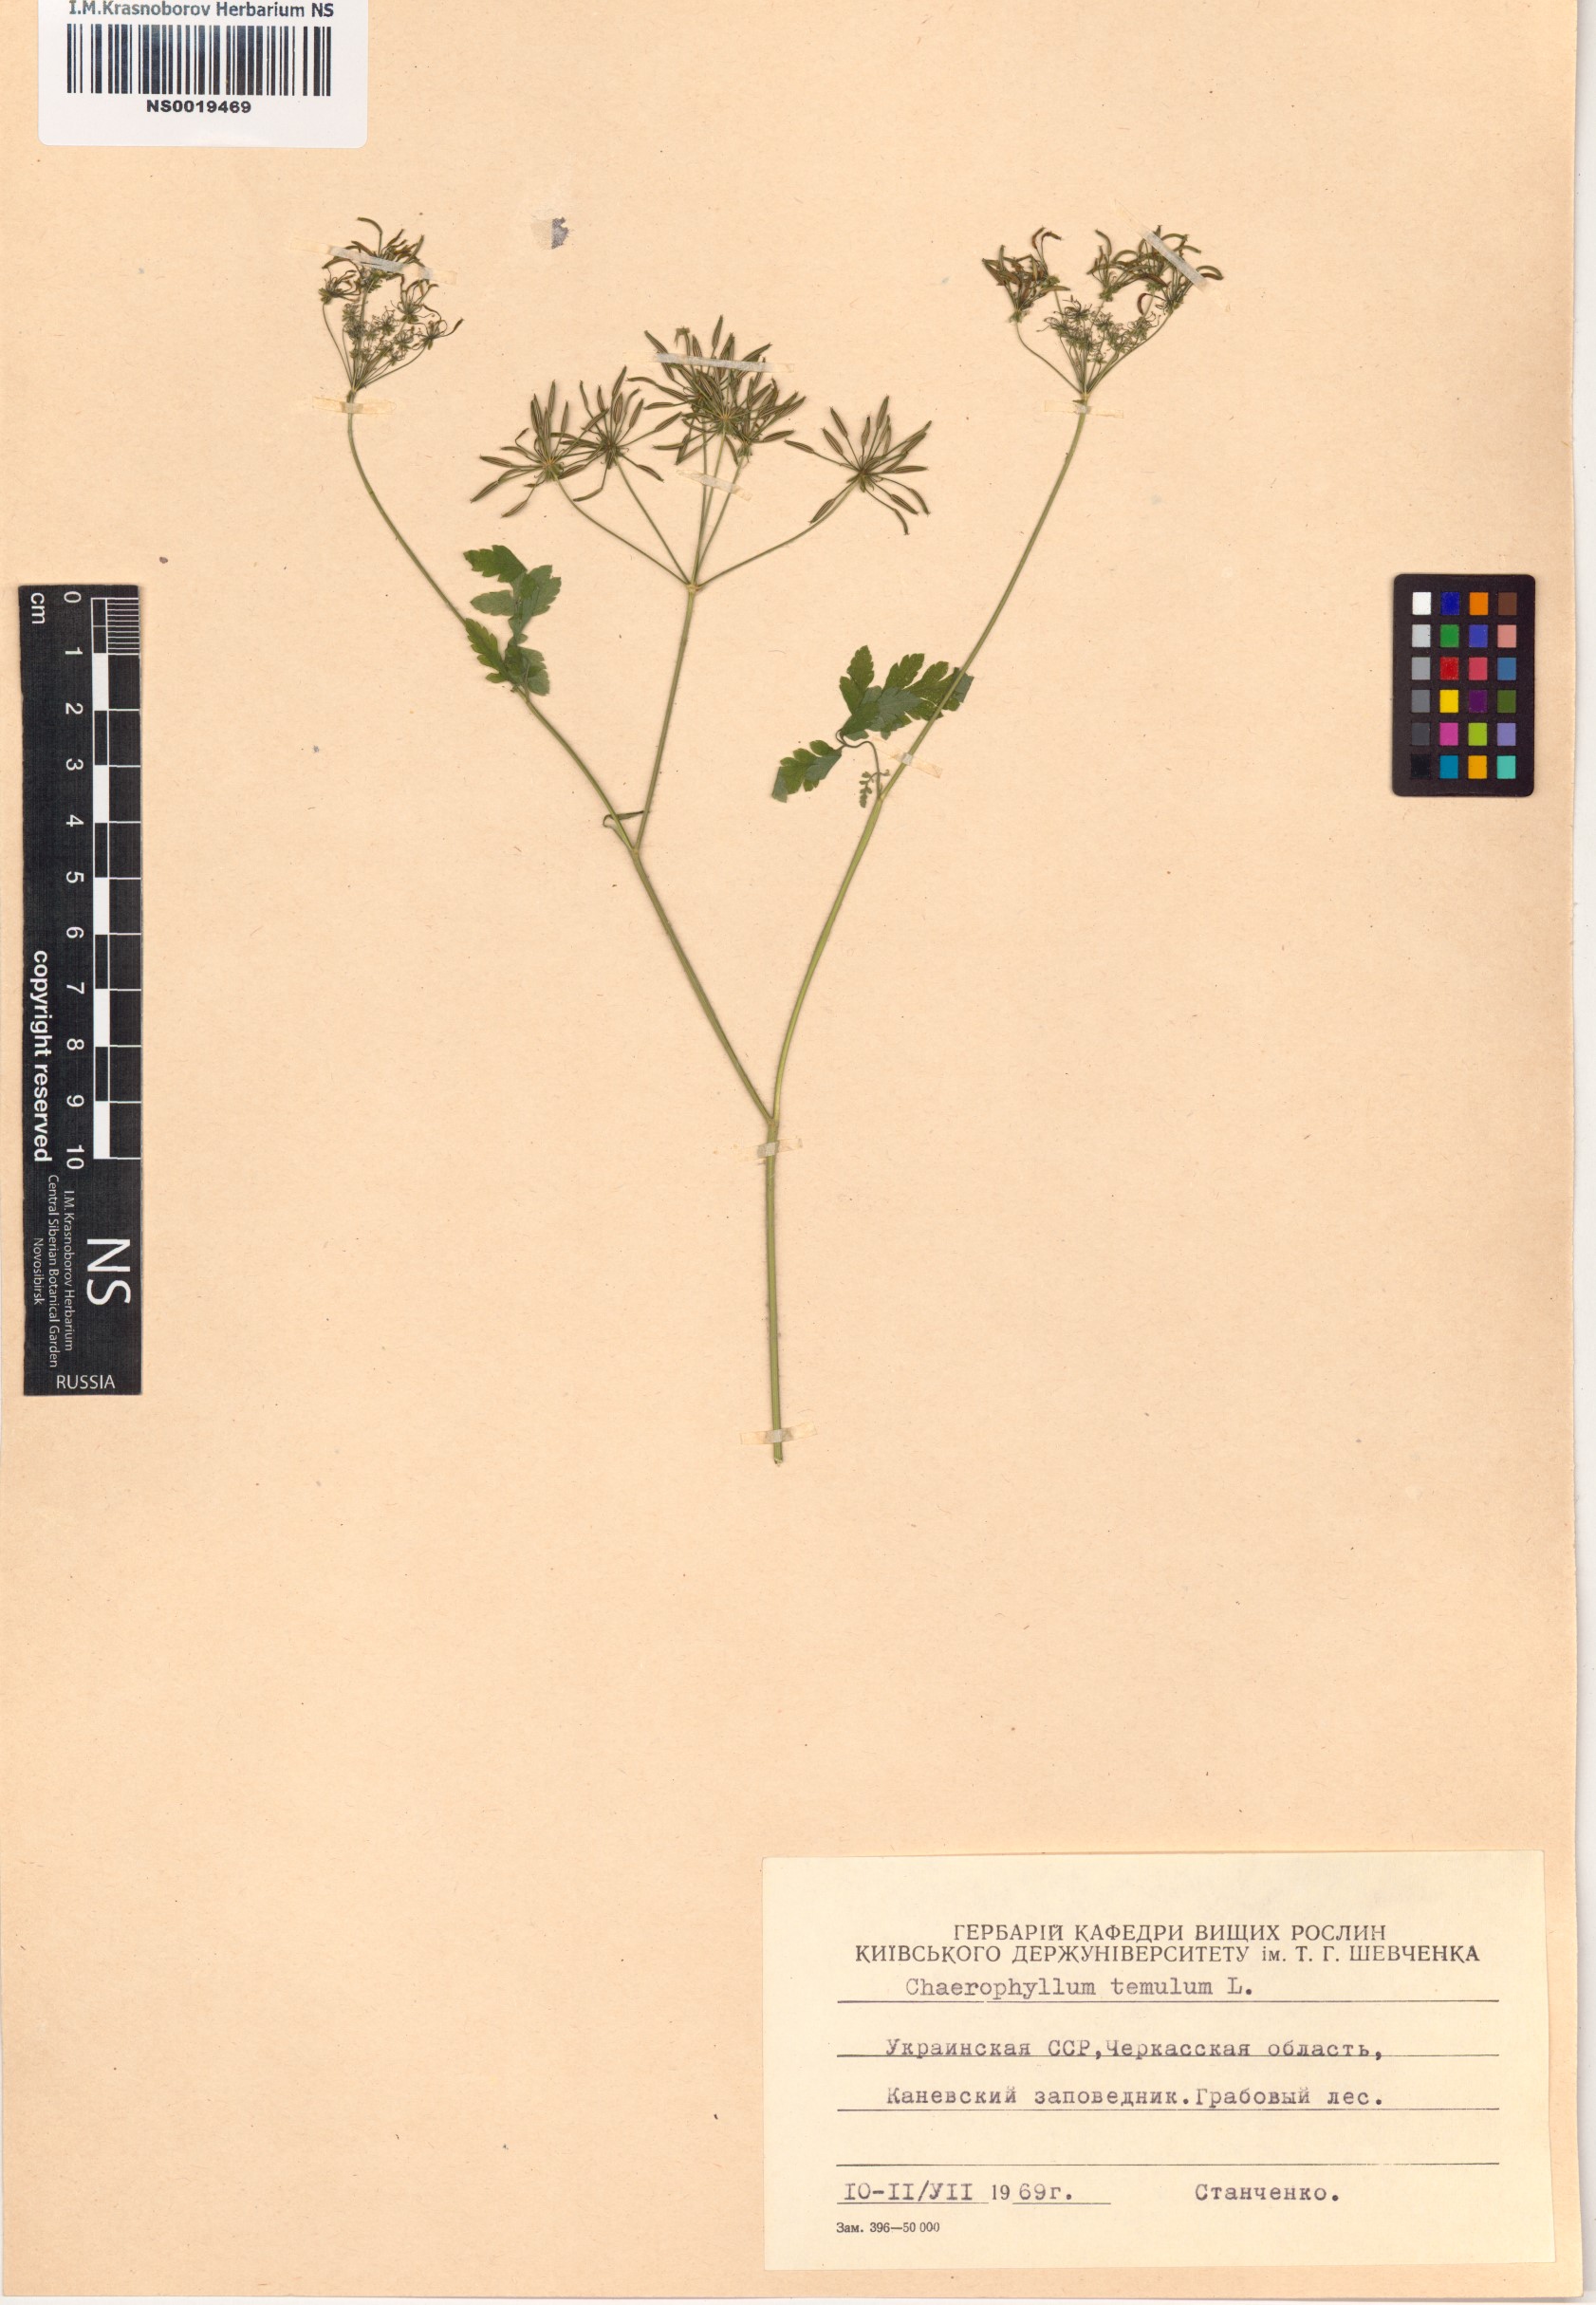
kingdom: Plantae
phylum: Tracheophyta
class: Magnoliopsida
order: Apiales
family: Apiaceae
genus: Chaerophyllum
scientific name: Chaerophyllum temulum
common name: Rough chervil
